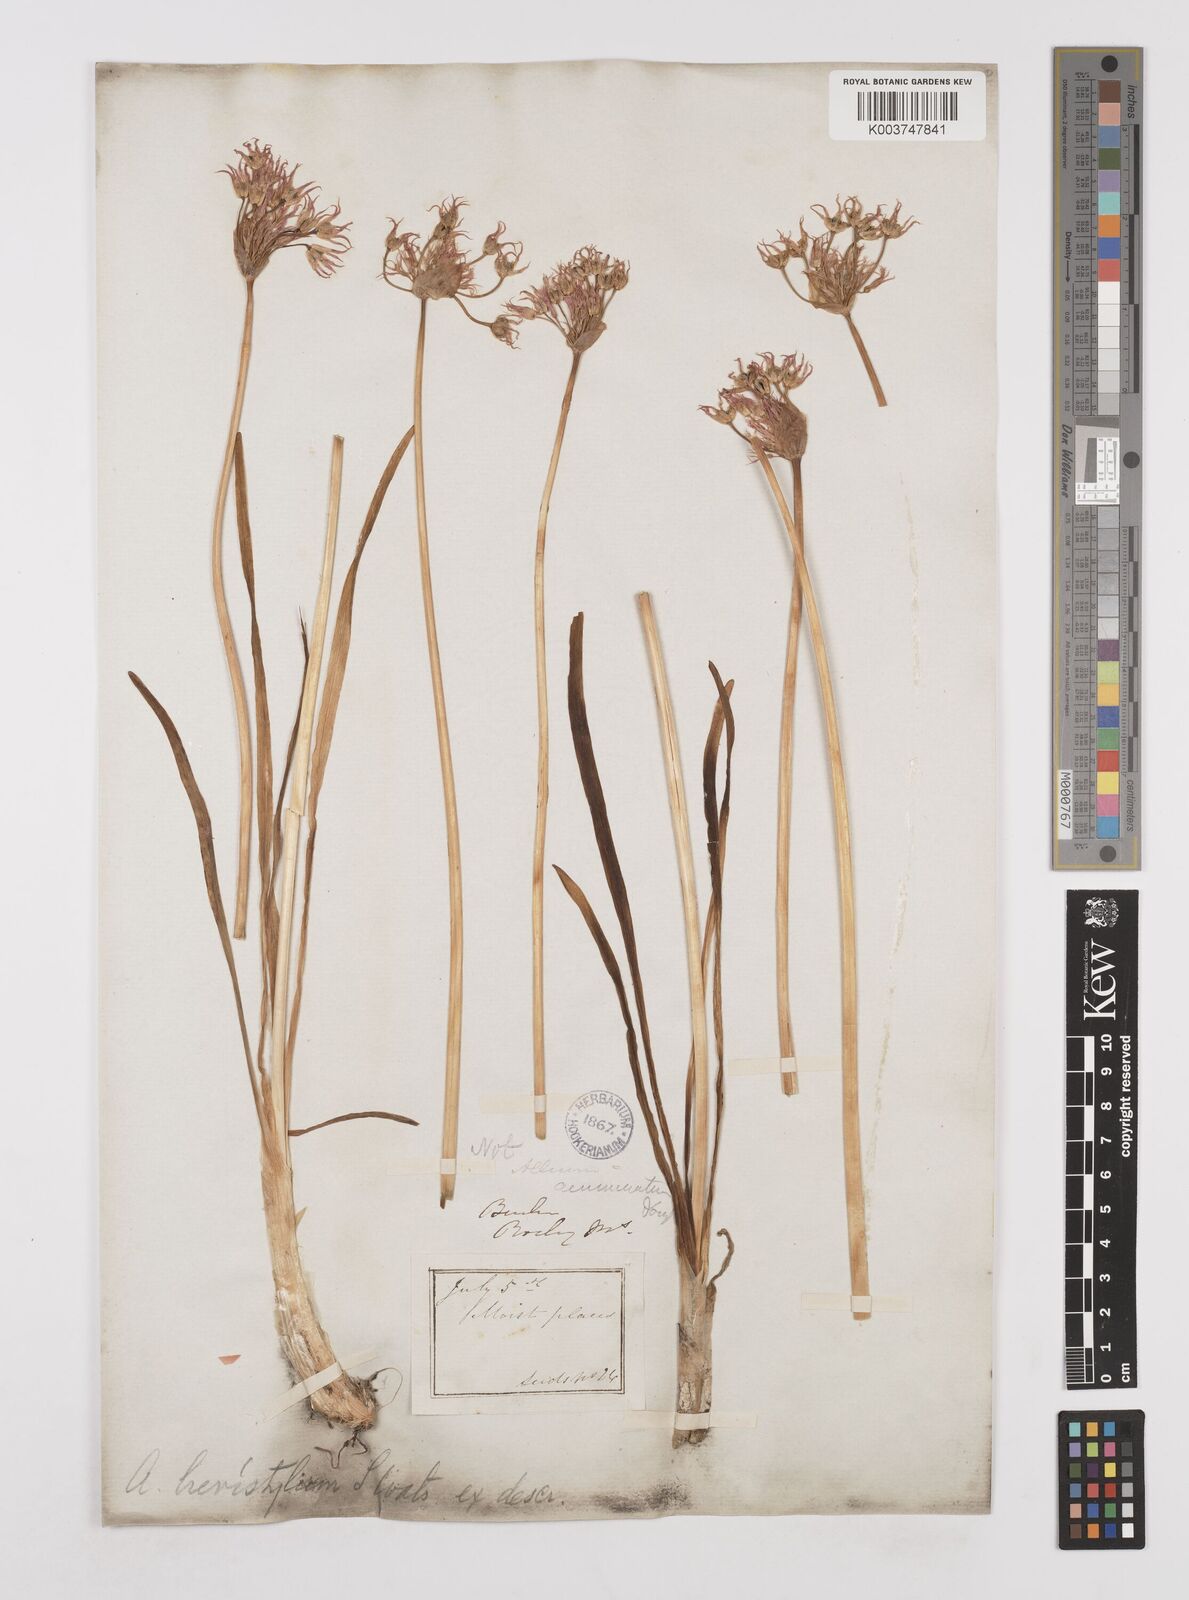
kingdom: Plantae
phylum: Tracheophyta
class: Liliopsida
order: Asparagales
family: Amaryllidaceae
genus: Allium
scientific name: Allium brevistylum
